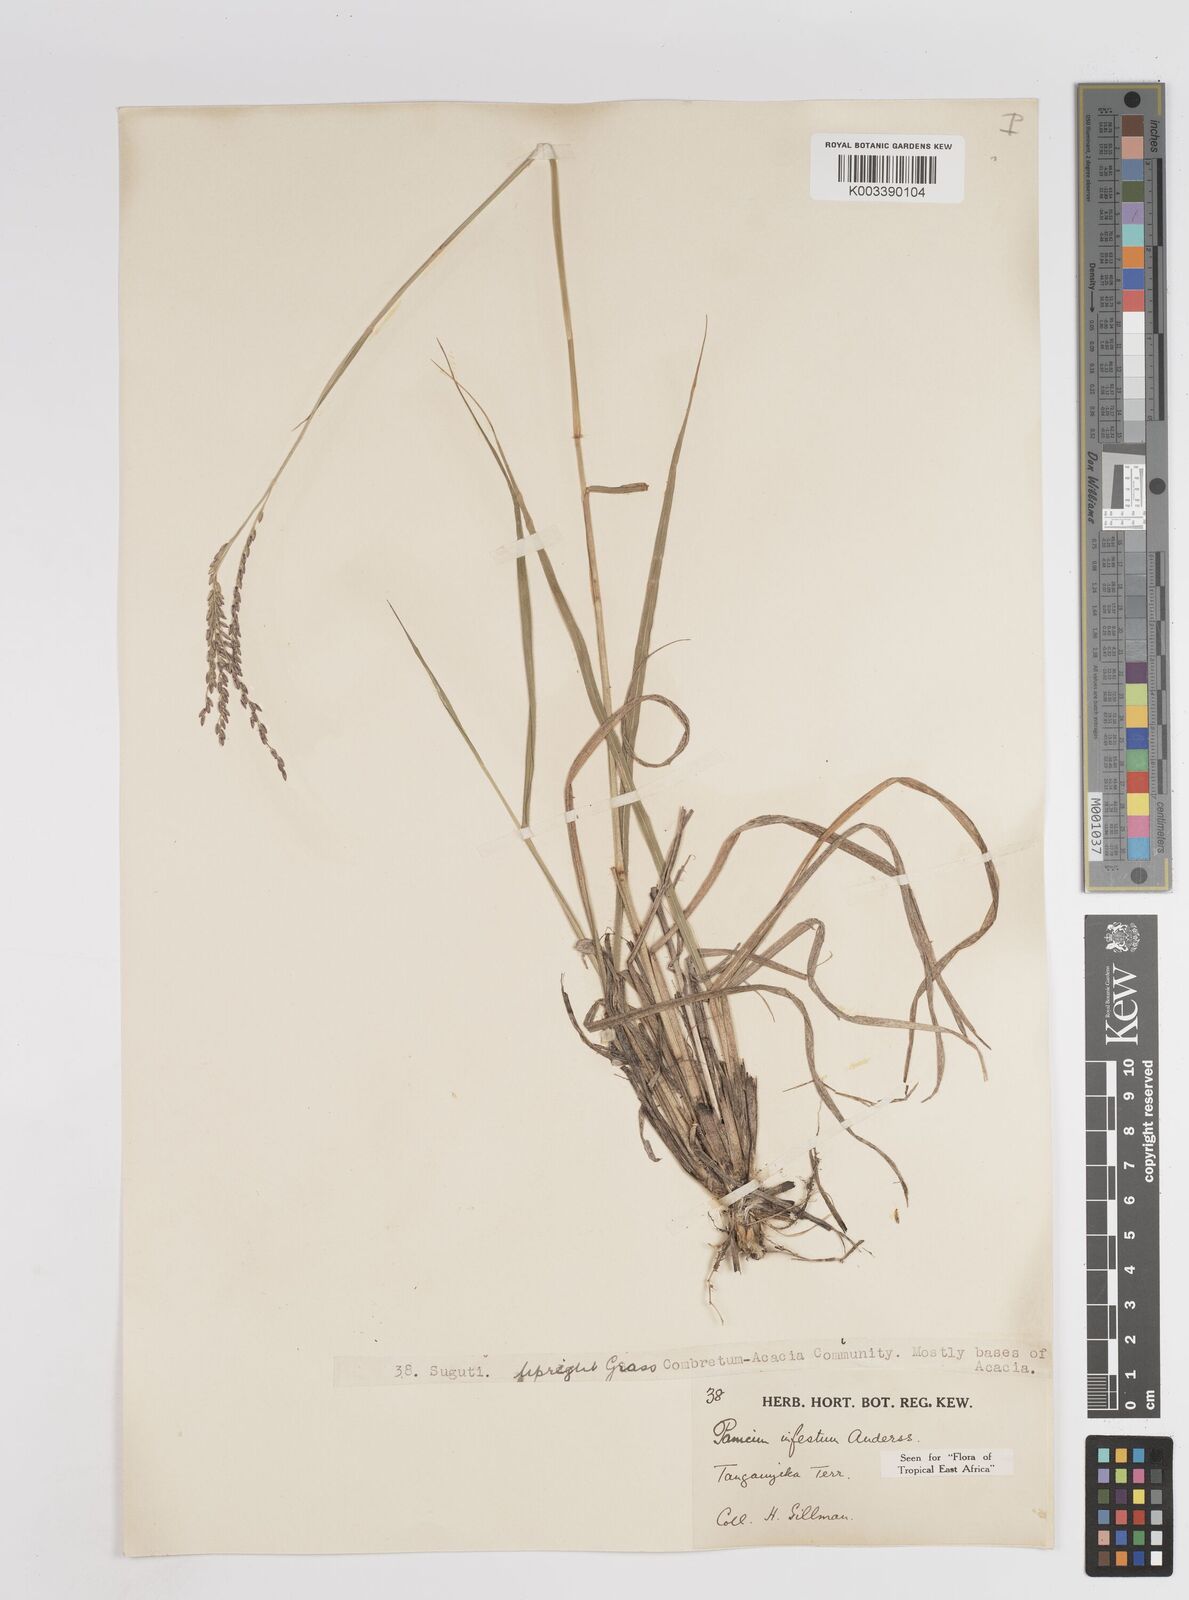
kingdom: Plantae
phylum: Tracheophyta
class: Liliopsida
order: Poales
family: Poaceae
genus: Megathyrsus
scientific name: Megathyrsus infestus
